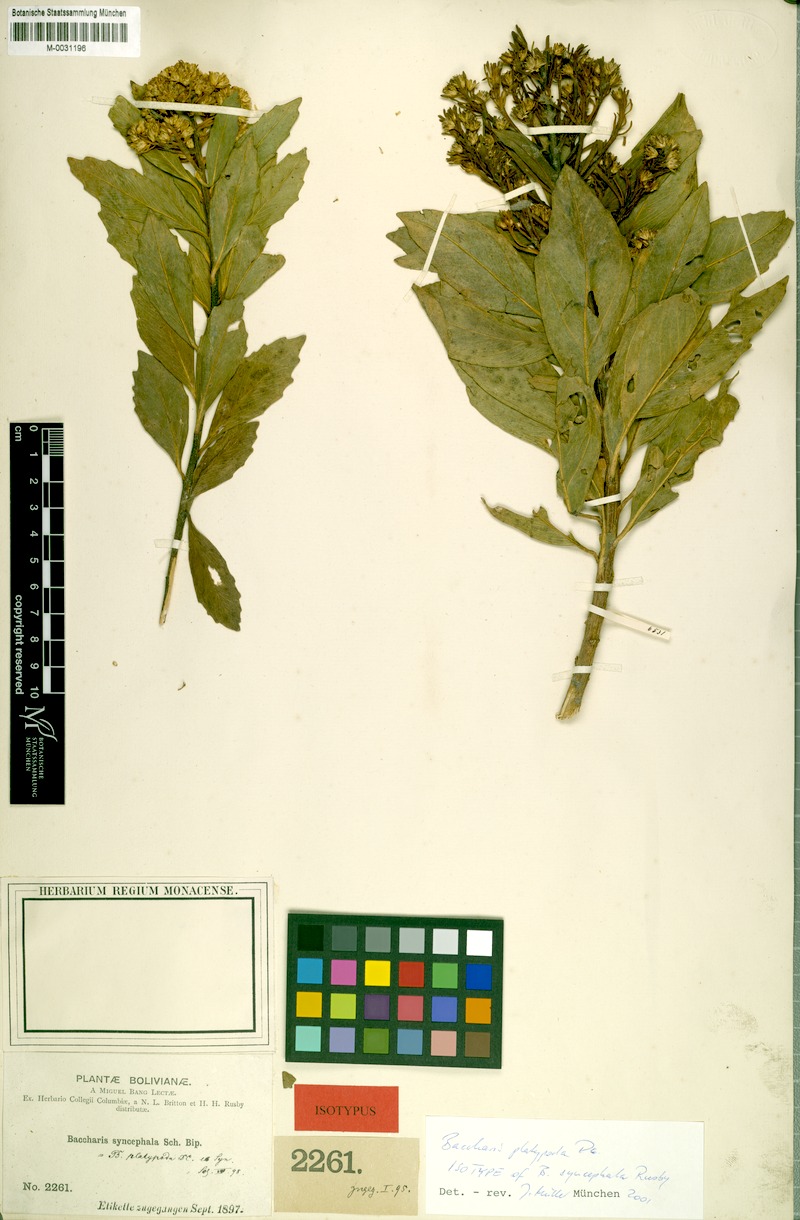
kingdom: Plantae
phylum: Tracheophyta
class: Magnoliopsida
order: Asterales
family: Asteraceae
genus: Baccharis
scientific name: Baccharis platypoda
